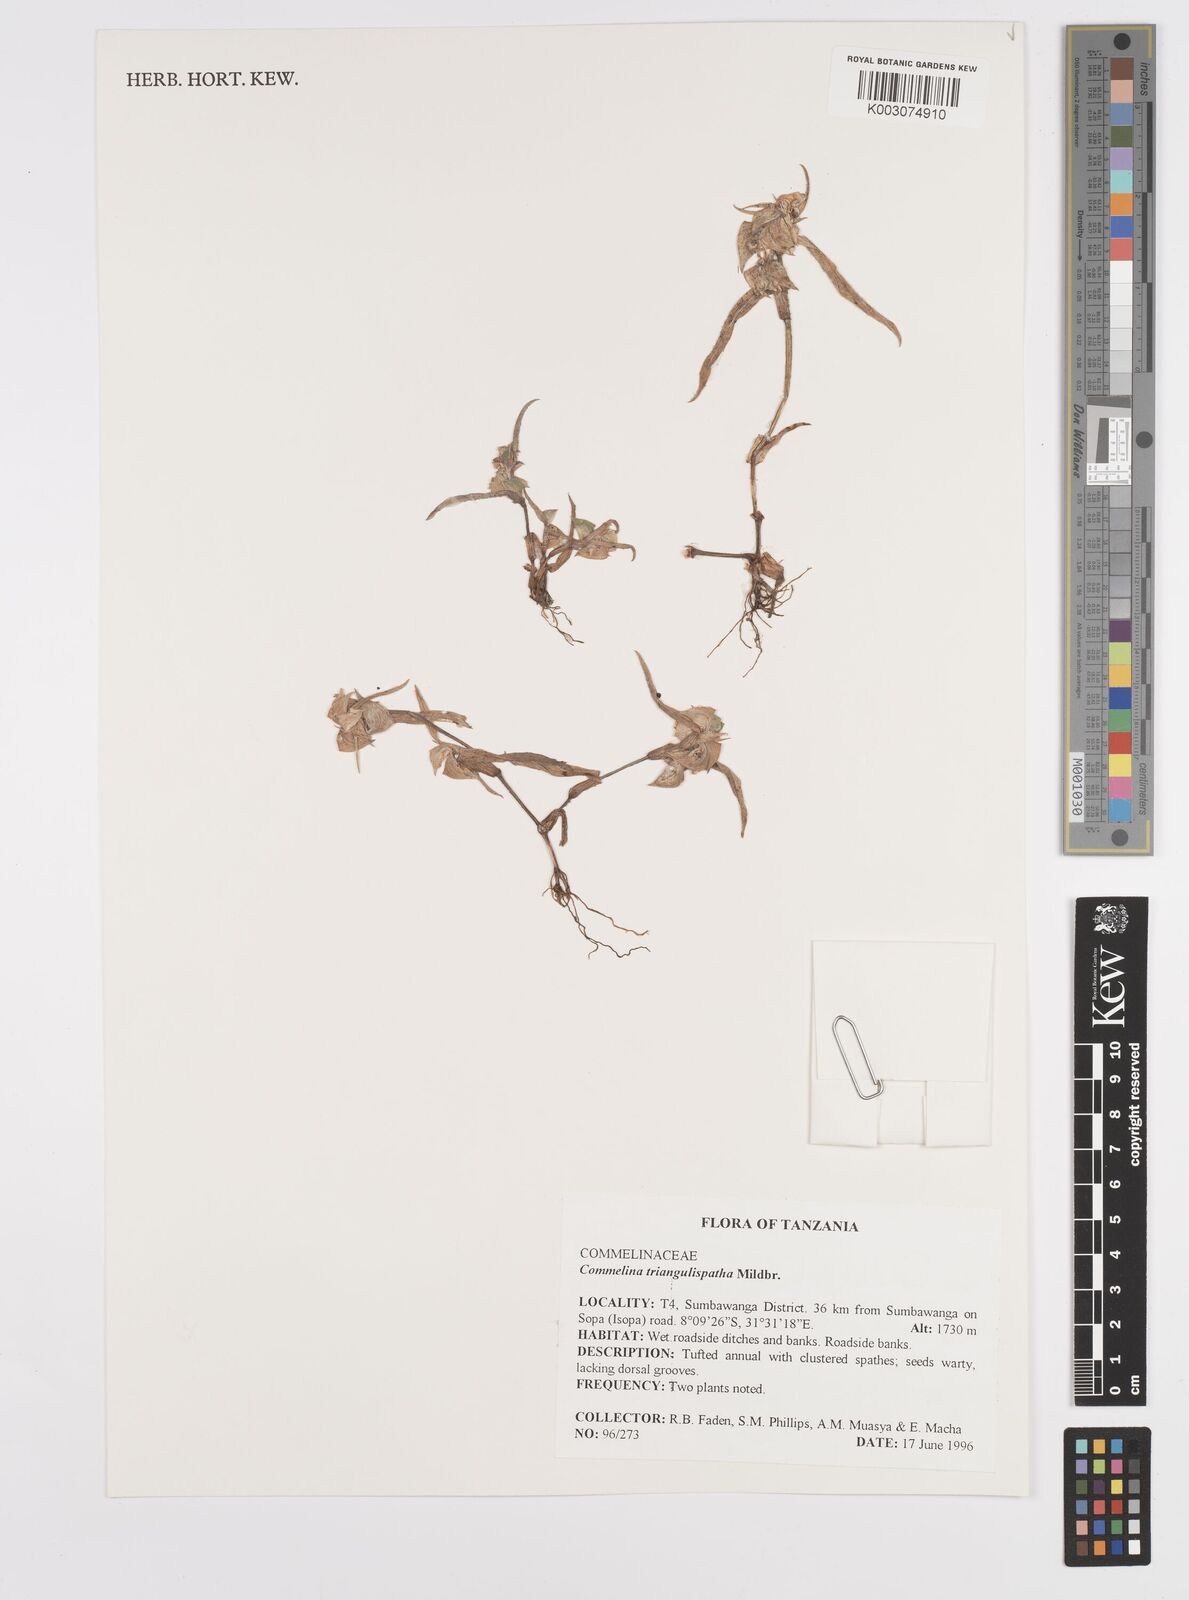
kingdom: Plantae
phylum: Tracheophyta
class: Liliopsida
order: Commelinales
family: Commelinaceae
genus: Commelina
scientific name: Commelina triangulispatha
